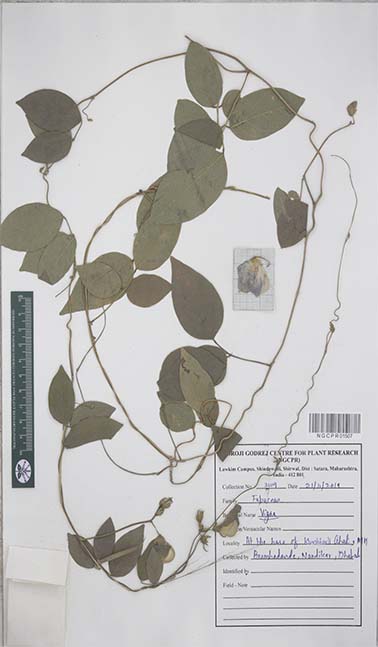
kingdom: Plantae
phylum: Tracheophyta
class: Magnoliopsida
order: Fabales
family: Fabaceae
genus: Vigna
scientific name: Vigna
